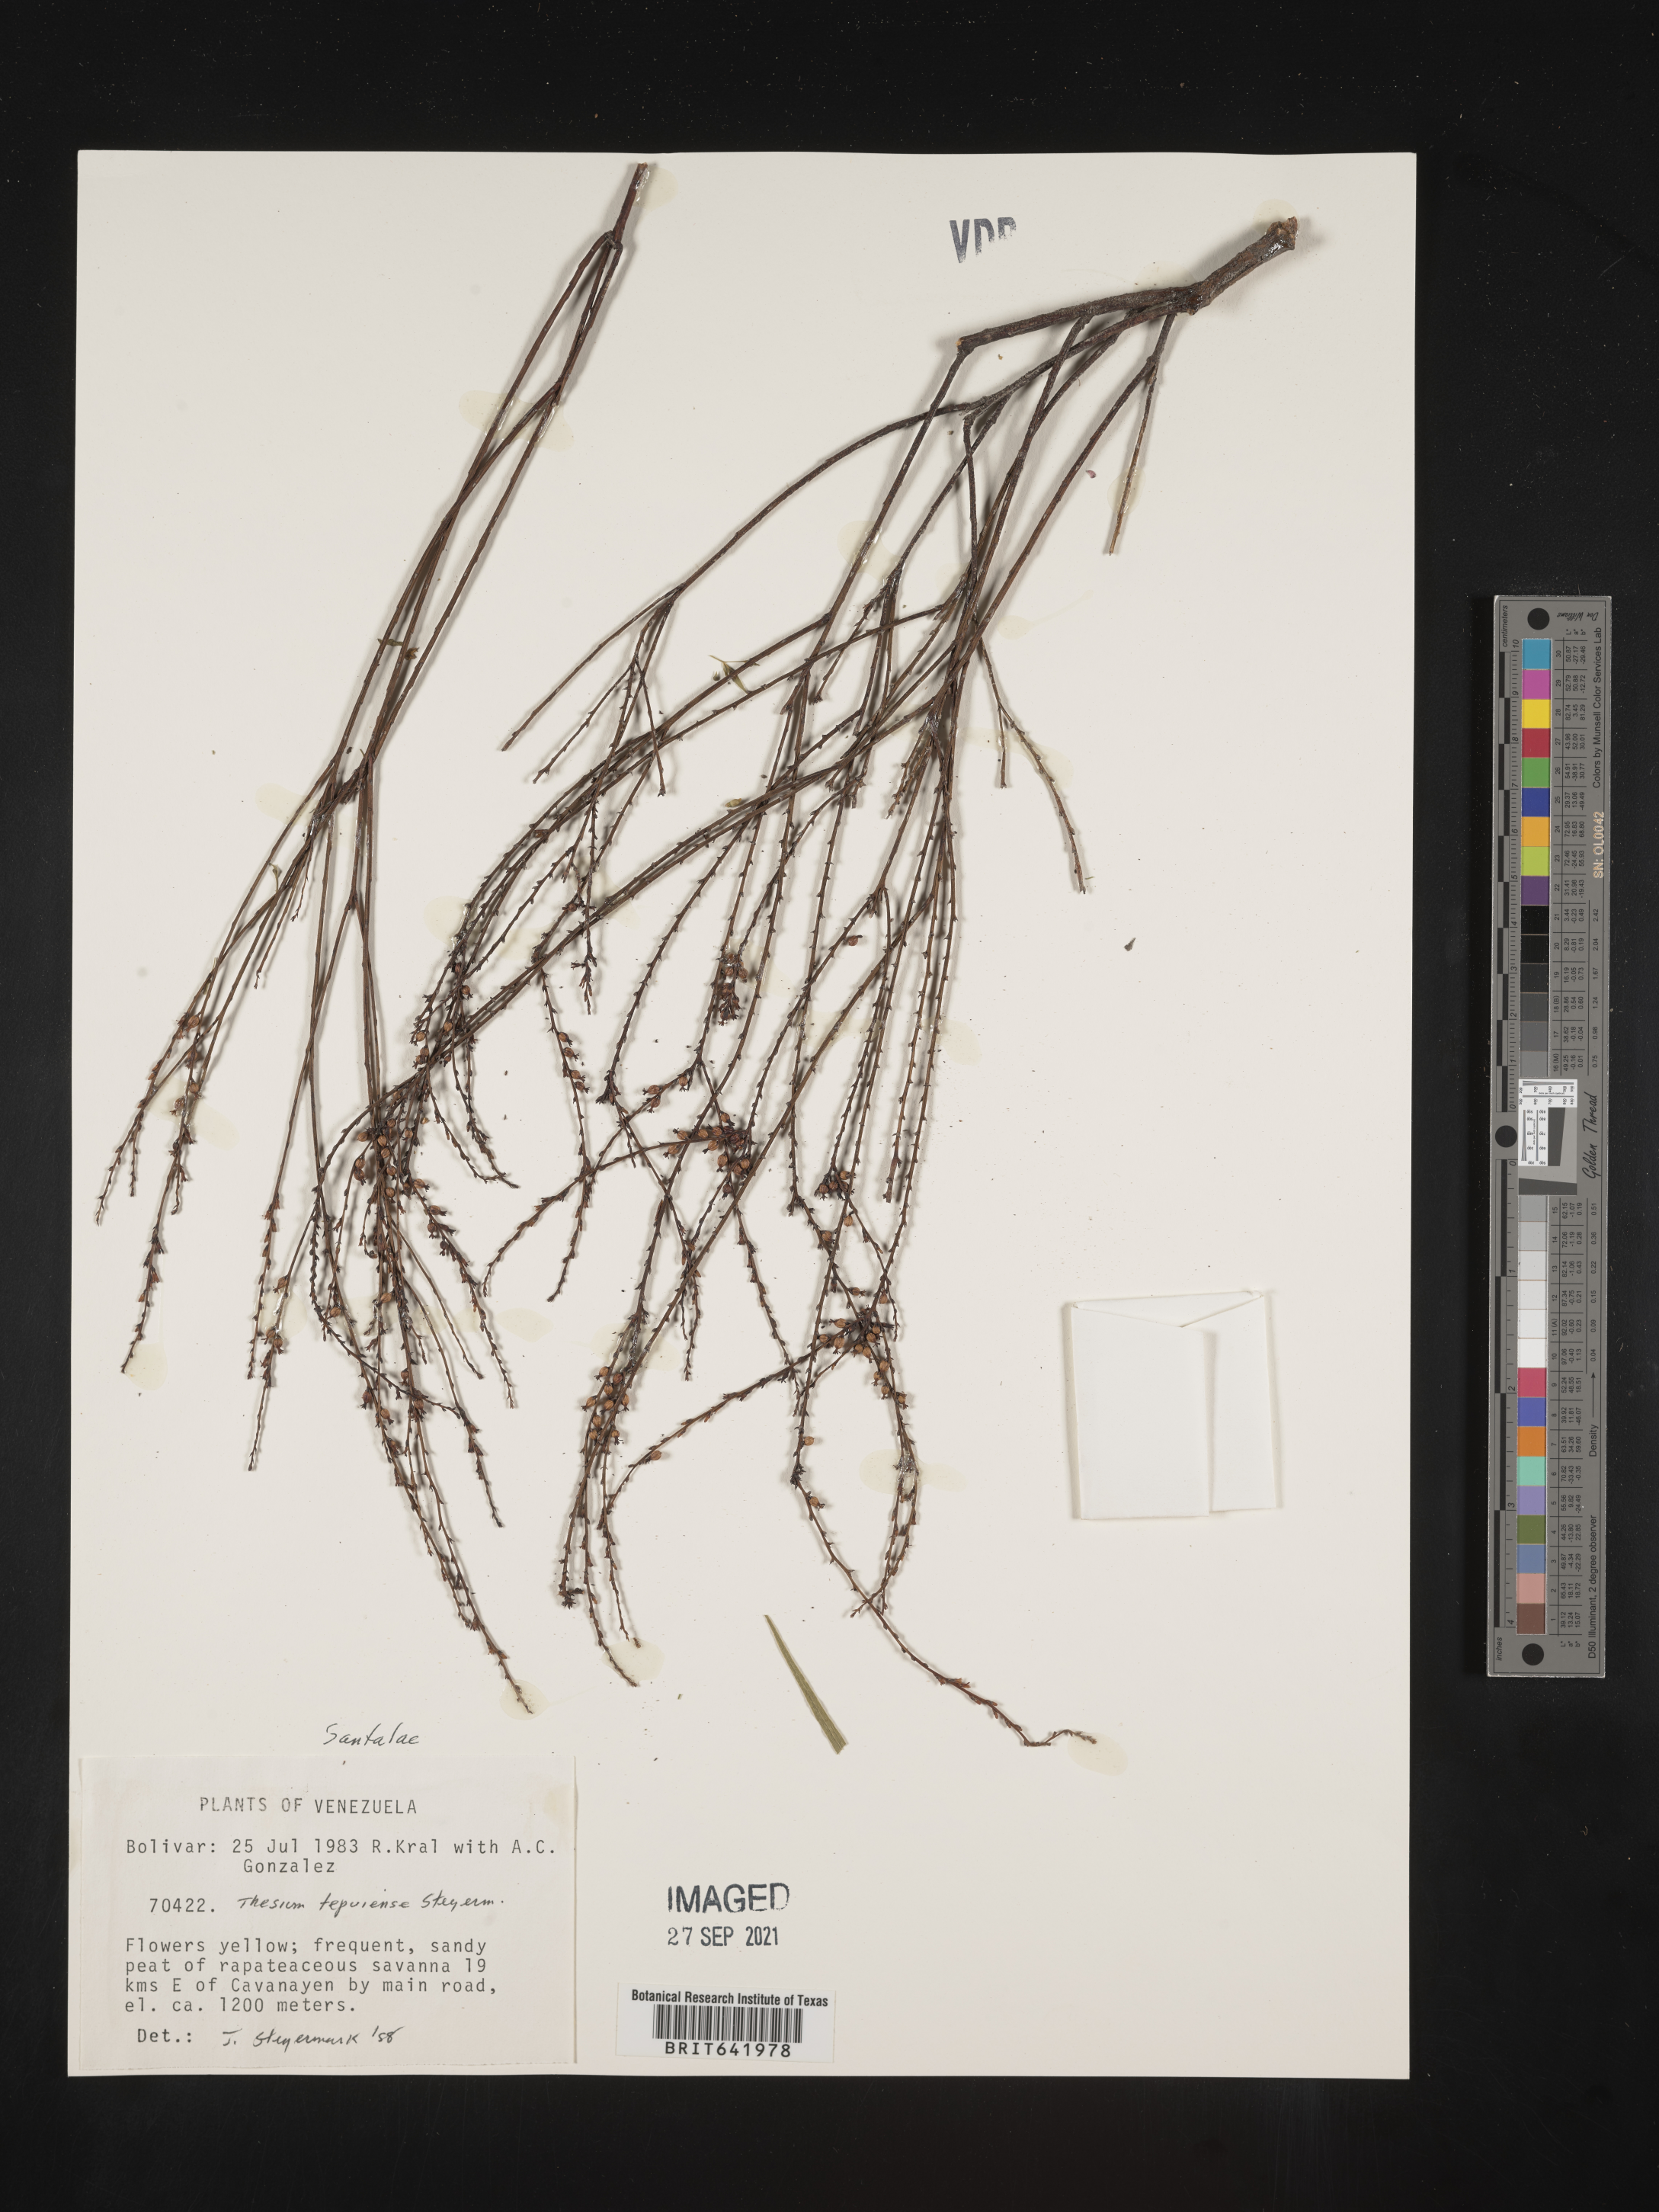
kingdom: Plantae
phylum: Tracheophyta
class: Magnoliopsida
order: Santalales
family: Thesiaceae
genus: Thesium
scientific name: Thesium
